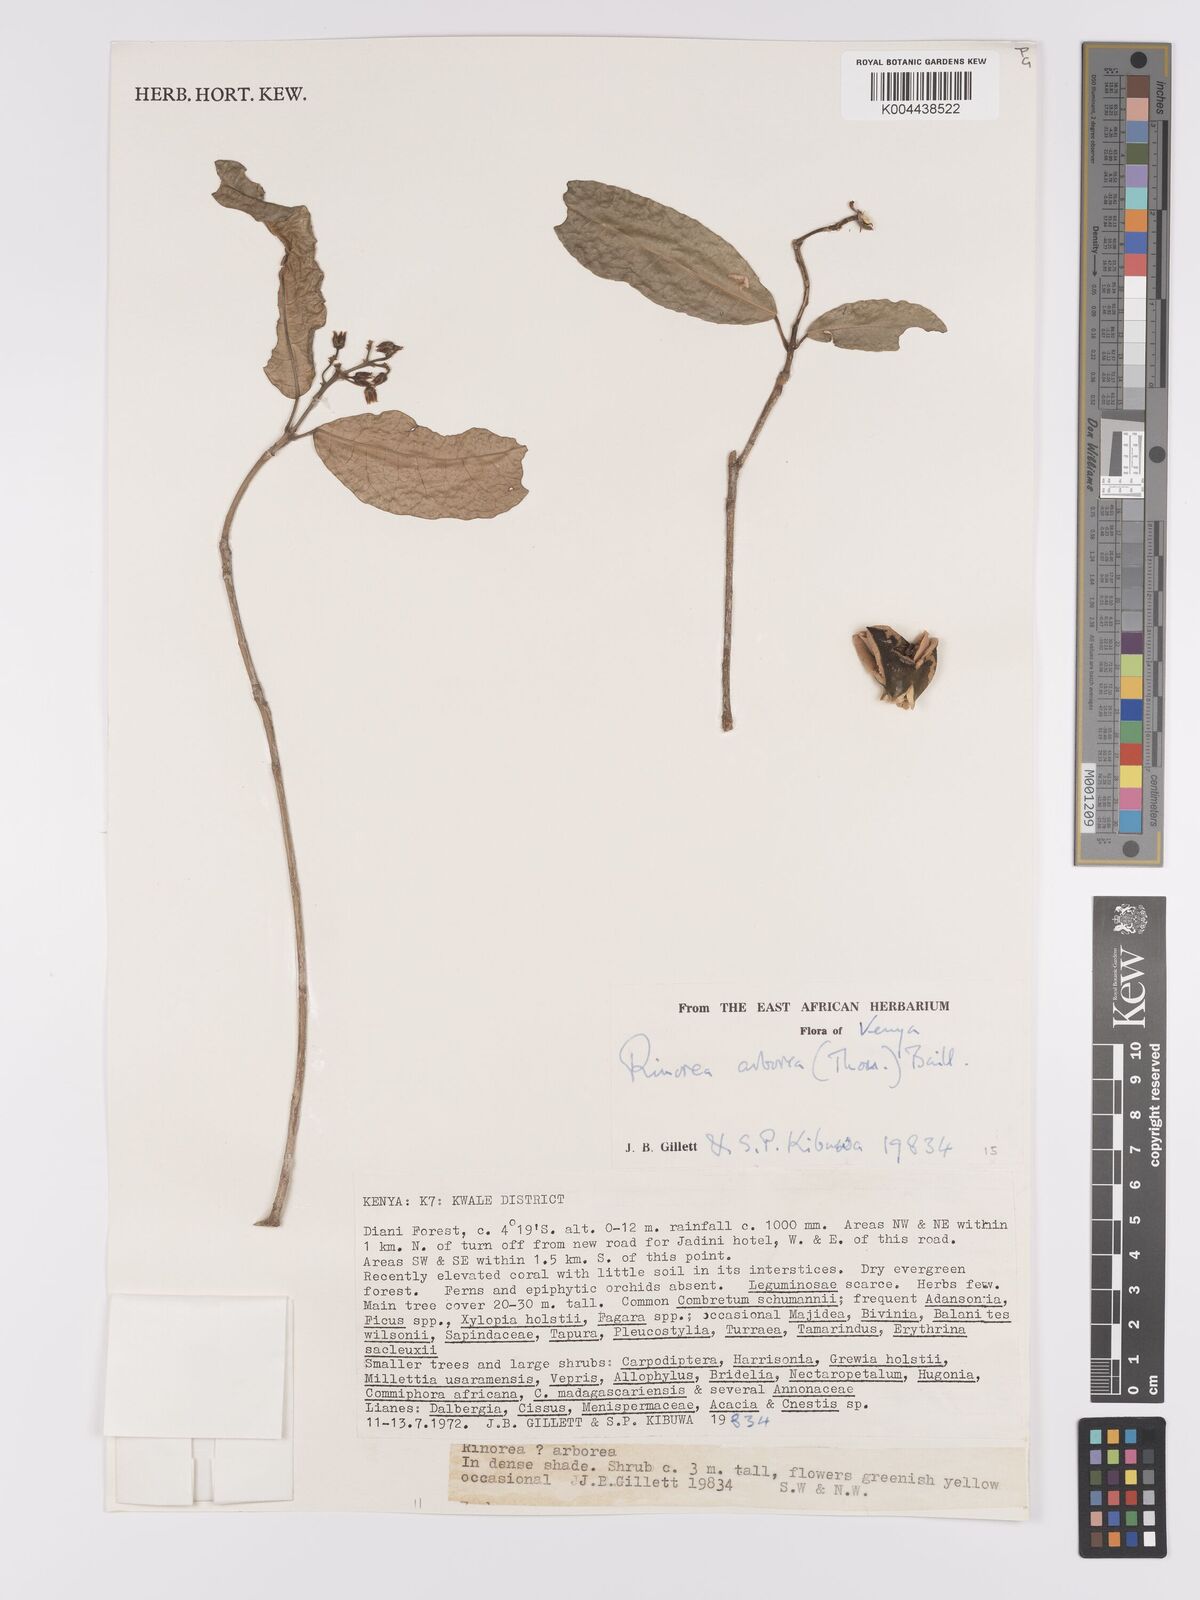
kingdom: Plantae
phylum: Tracheophyta
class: Magnoliopsida
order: Malpighiales
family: Violaceae
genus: Rinorea
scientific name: Rinorea arborea
